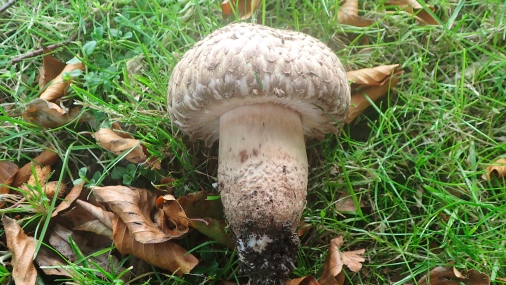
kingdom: Fungi
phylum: Basidiomycota
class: Agaricomycetes
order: Agaricales
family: Agaricaceae
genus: Agaricus
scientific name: Agaricus bohusii
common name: krumskællet champignon
